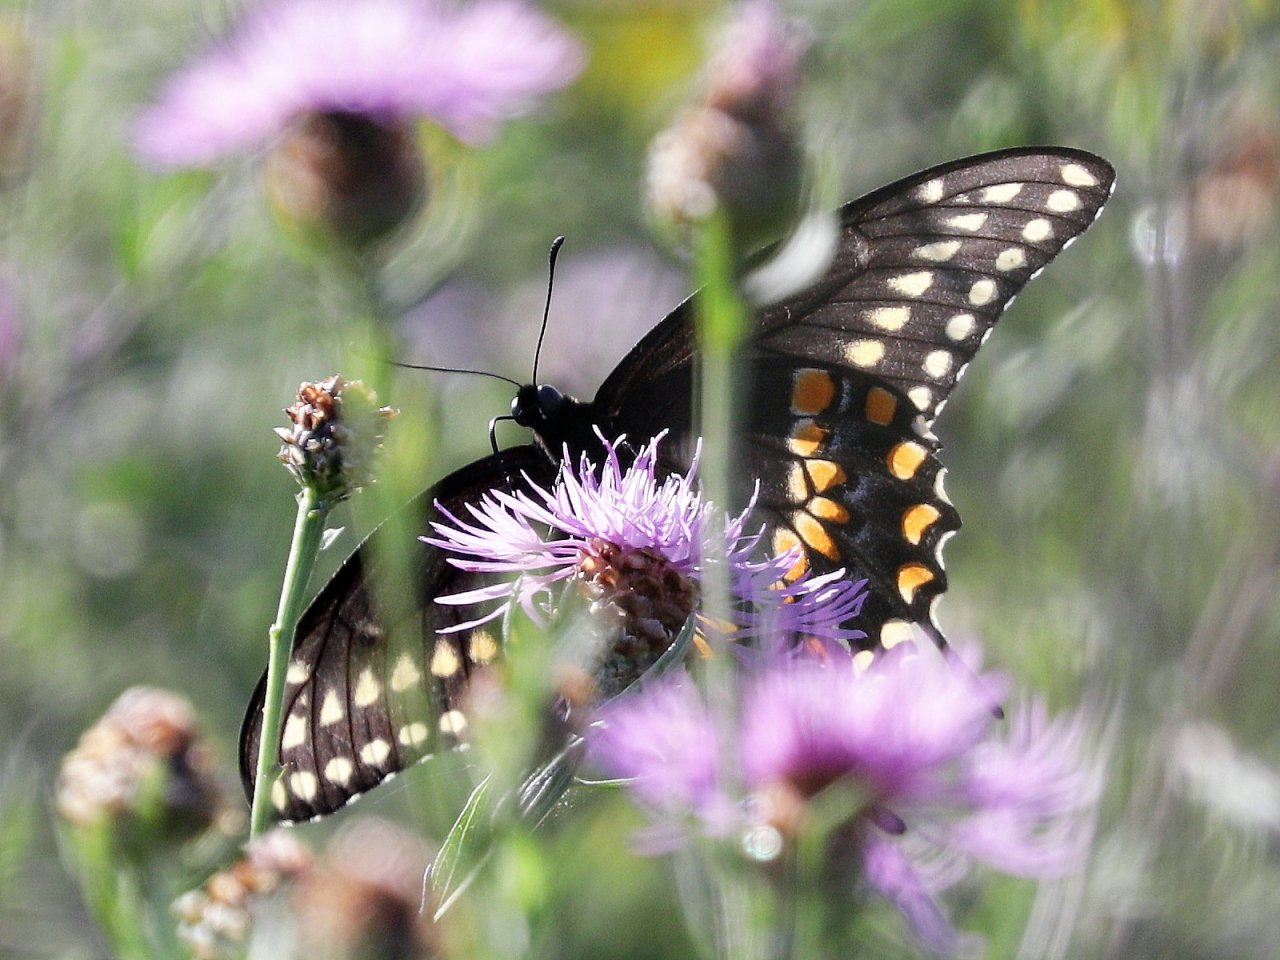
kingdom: Animalia
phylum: Arthropoda
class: Insecta
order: Lepidoptera
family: Papilionidae
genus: Papilio
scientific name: Papilio polyxenes
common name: Black Swallowtail
